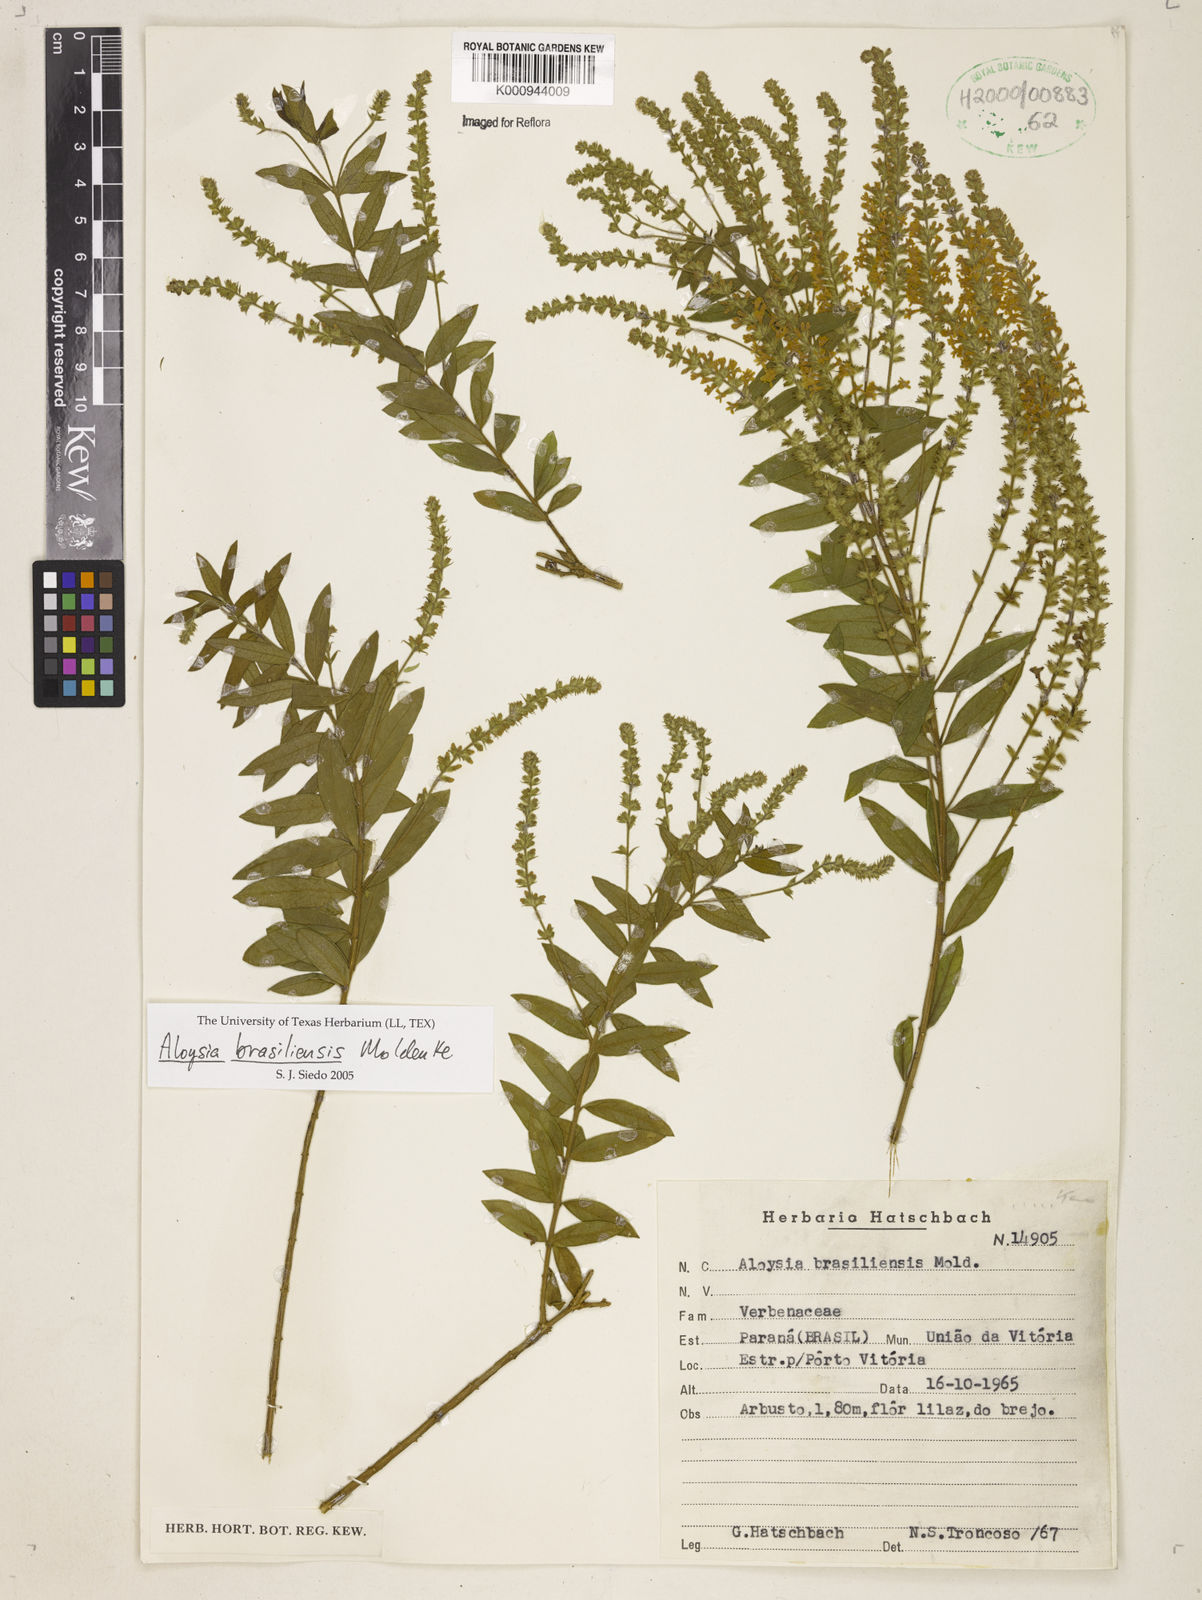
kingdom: Plantae
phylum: Tracheophyta
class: Magnoliopsida
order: Lamiales
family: Verbenaceae
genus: Aloysia
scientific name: Aloysia brasiliensis
